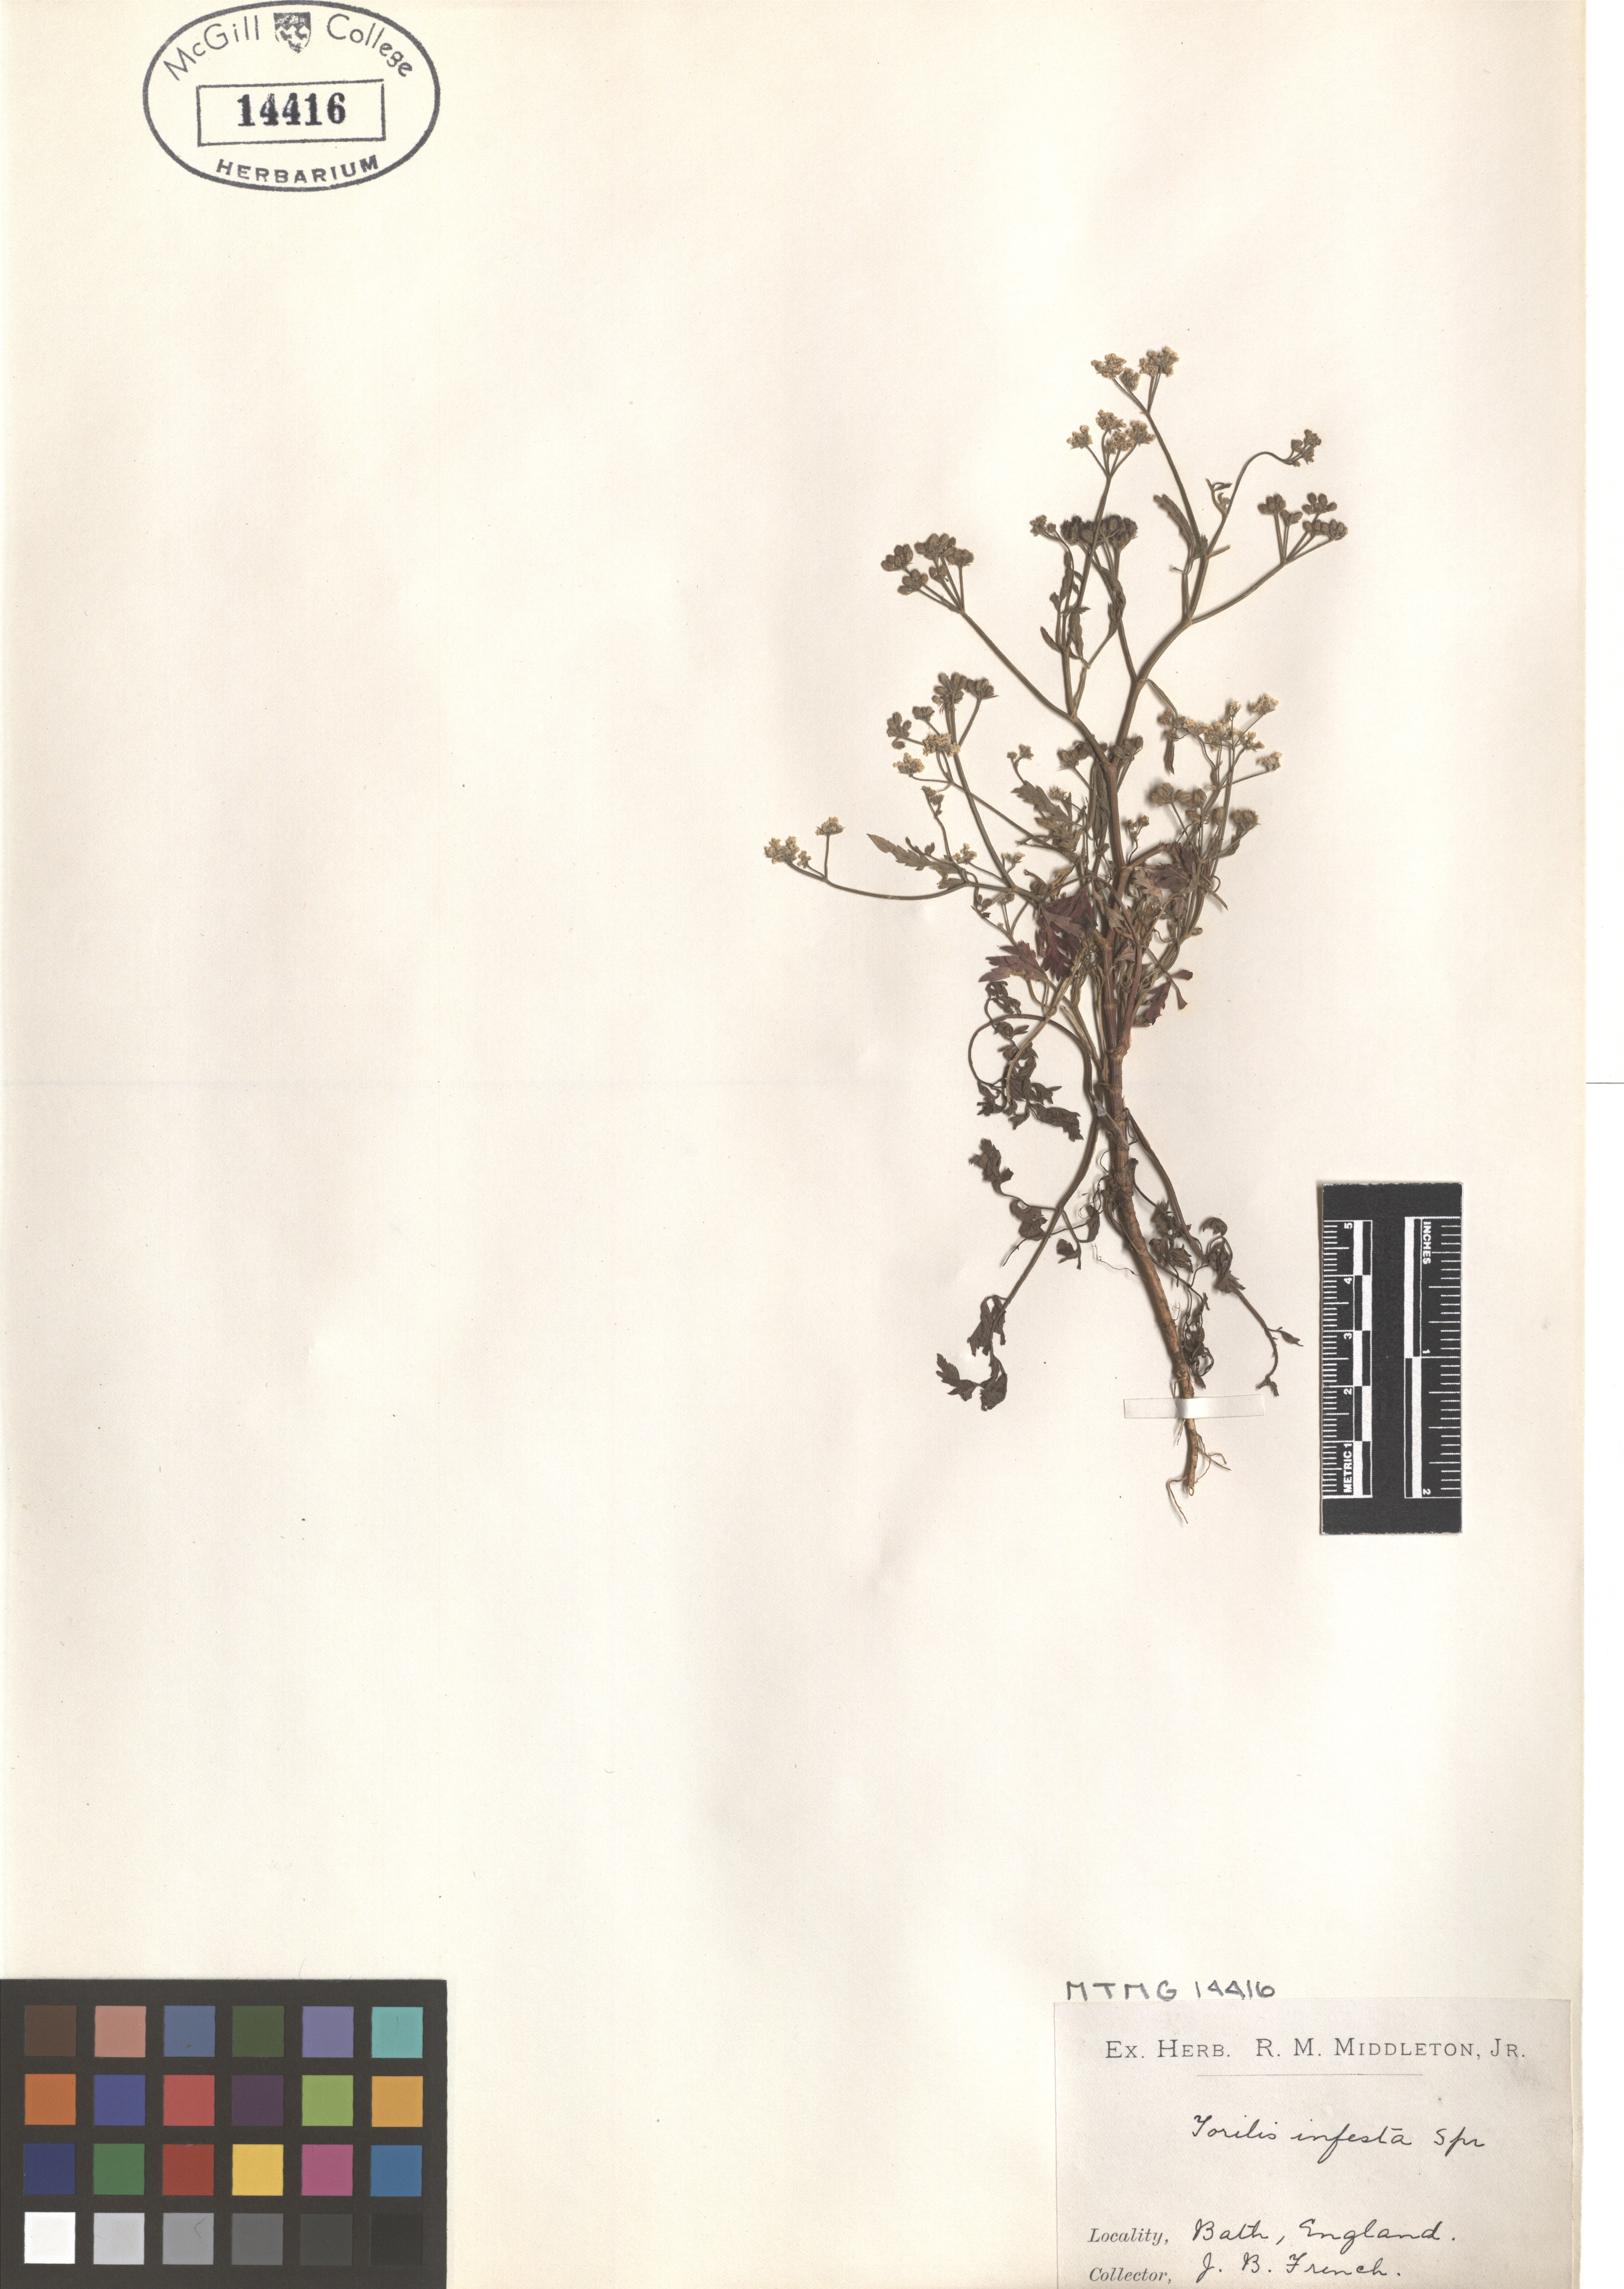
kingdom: Plantae
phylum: Tracheophyta
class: Magnoliopsida
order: Apiales
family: Apiaceae
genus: Torilis
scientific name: Torilis arvensis
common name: Spreading hedge-parsley
